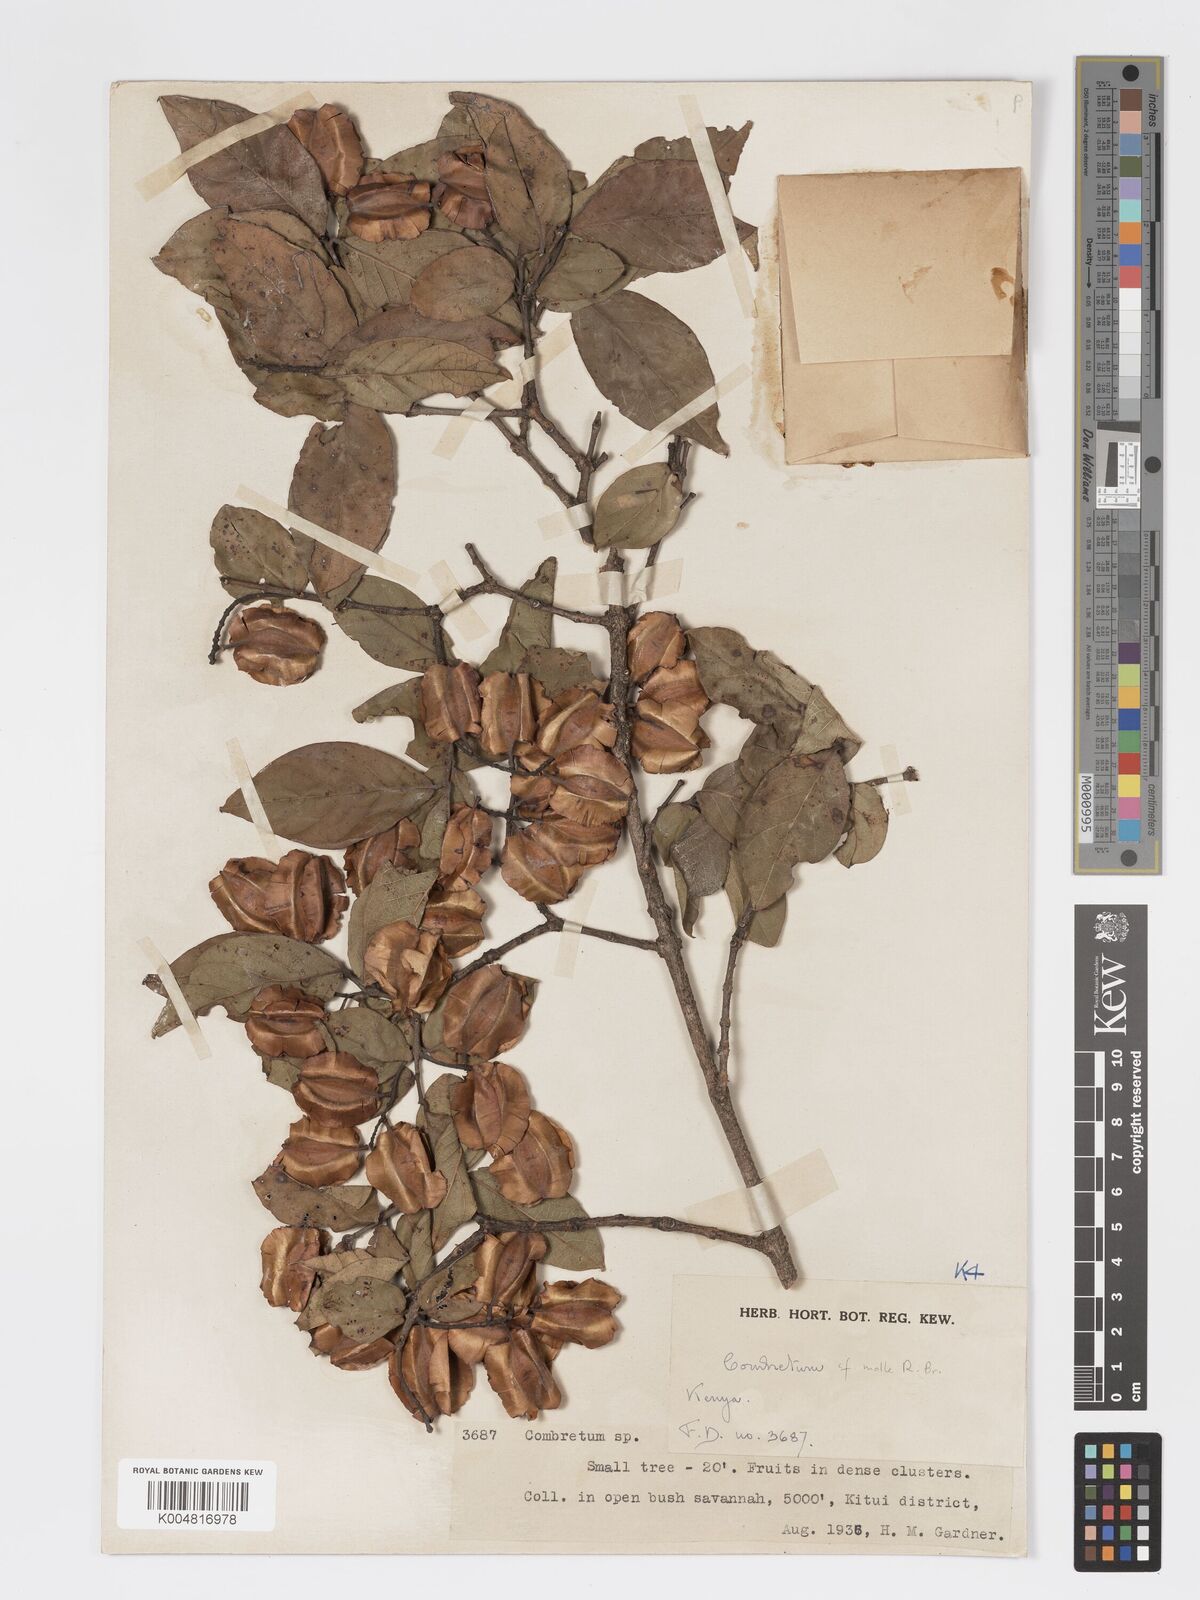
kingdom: Plantae
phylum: Tracheophyta
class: Magnoliopsida
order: Myrtales
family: Combretaceae
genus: Combretum
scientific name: Combretum apiculatum
